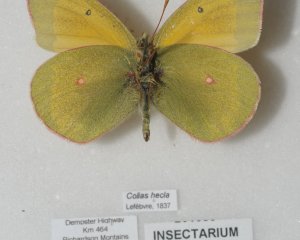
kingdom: Animalia
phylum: Arthropoda
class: Insecta
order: Lepidoptera
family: Pieridae
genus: Colias
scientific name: Colias hecla
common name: Hecla Sulphur
